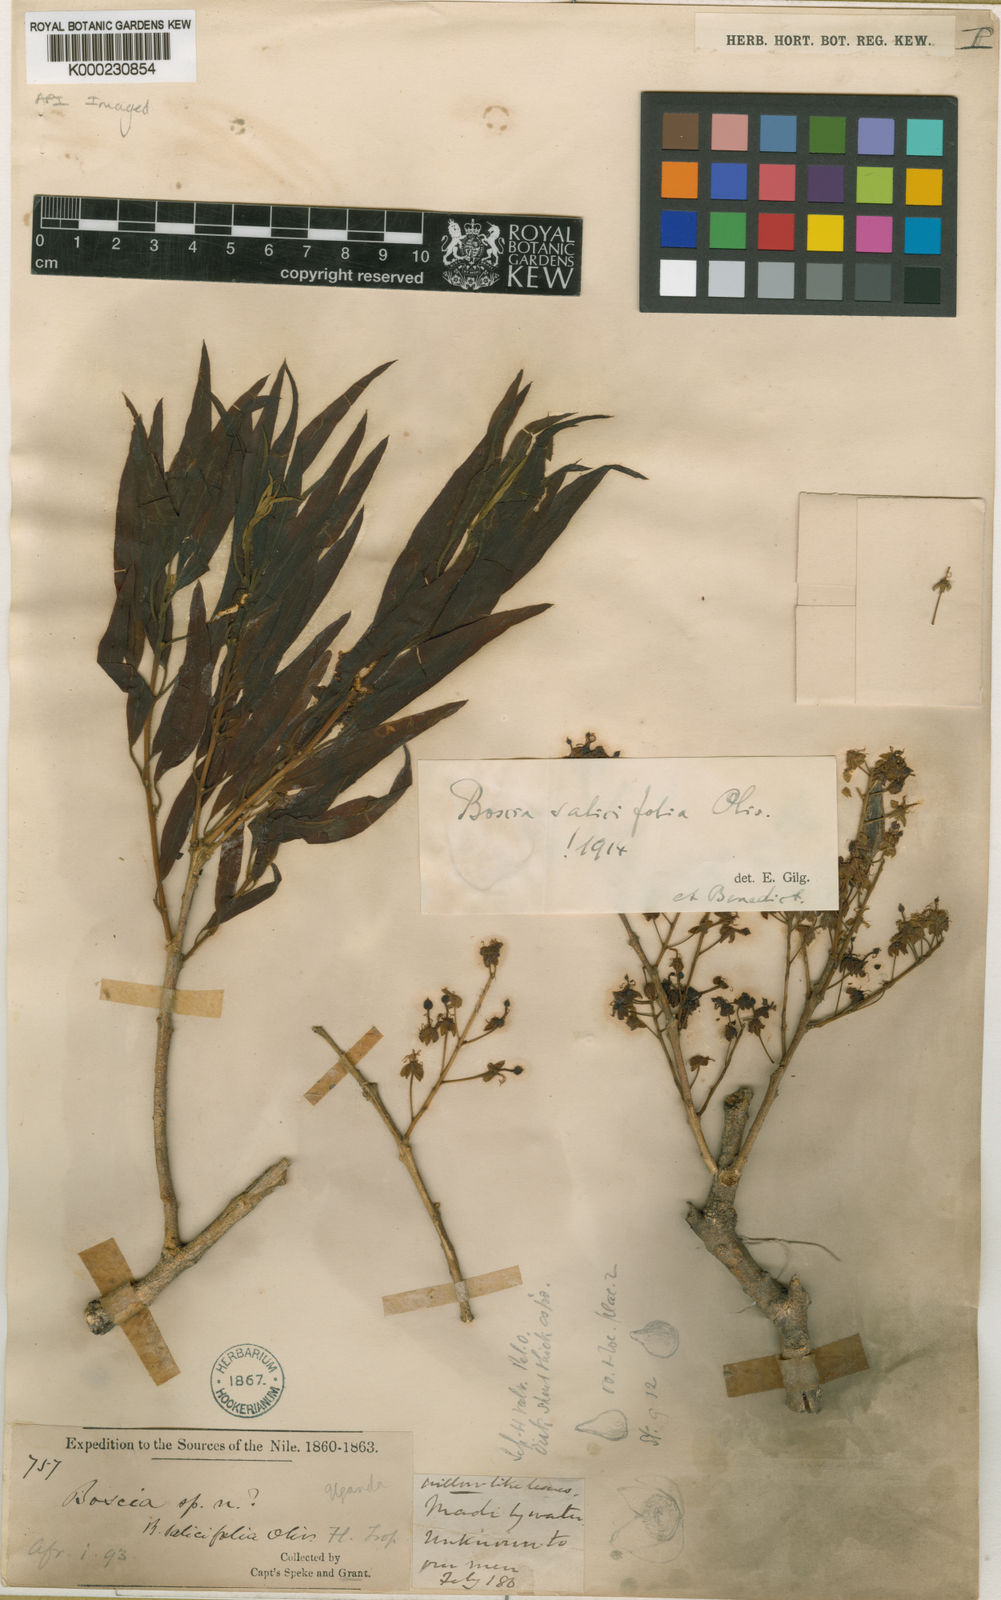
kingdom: Plantae
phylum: Tracheophyta
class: Magnoliopsida
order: Brassicales
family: Capparaceae
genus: Boscia
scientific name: Boscia salicifolia
